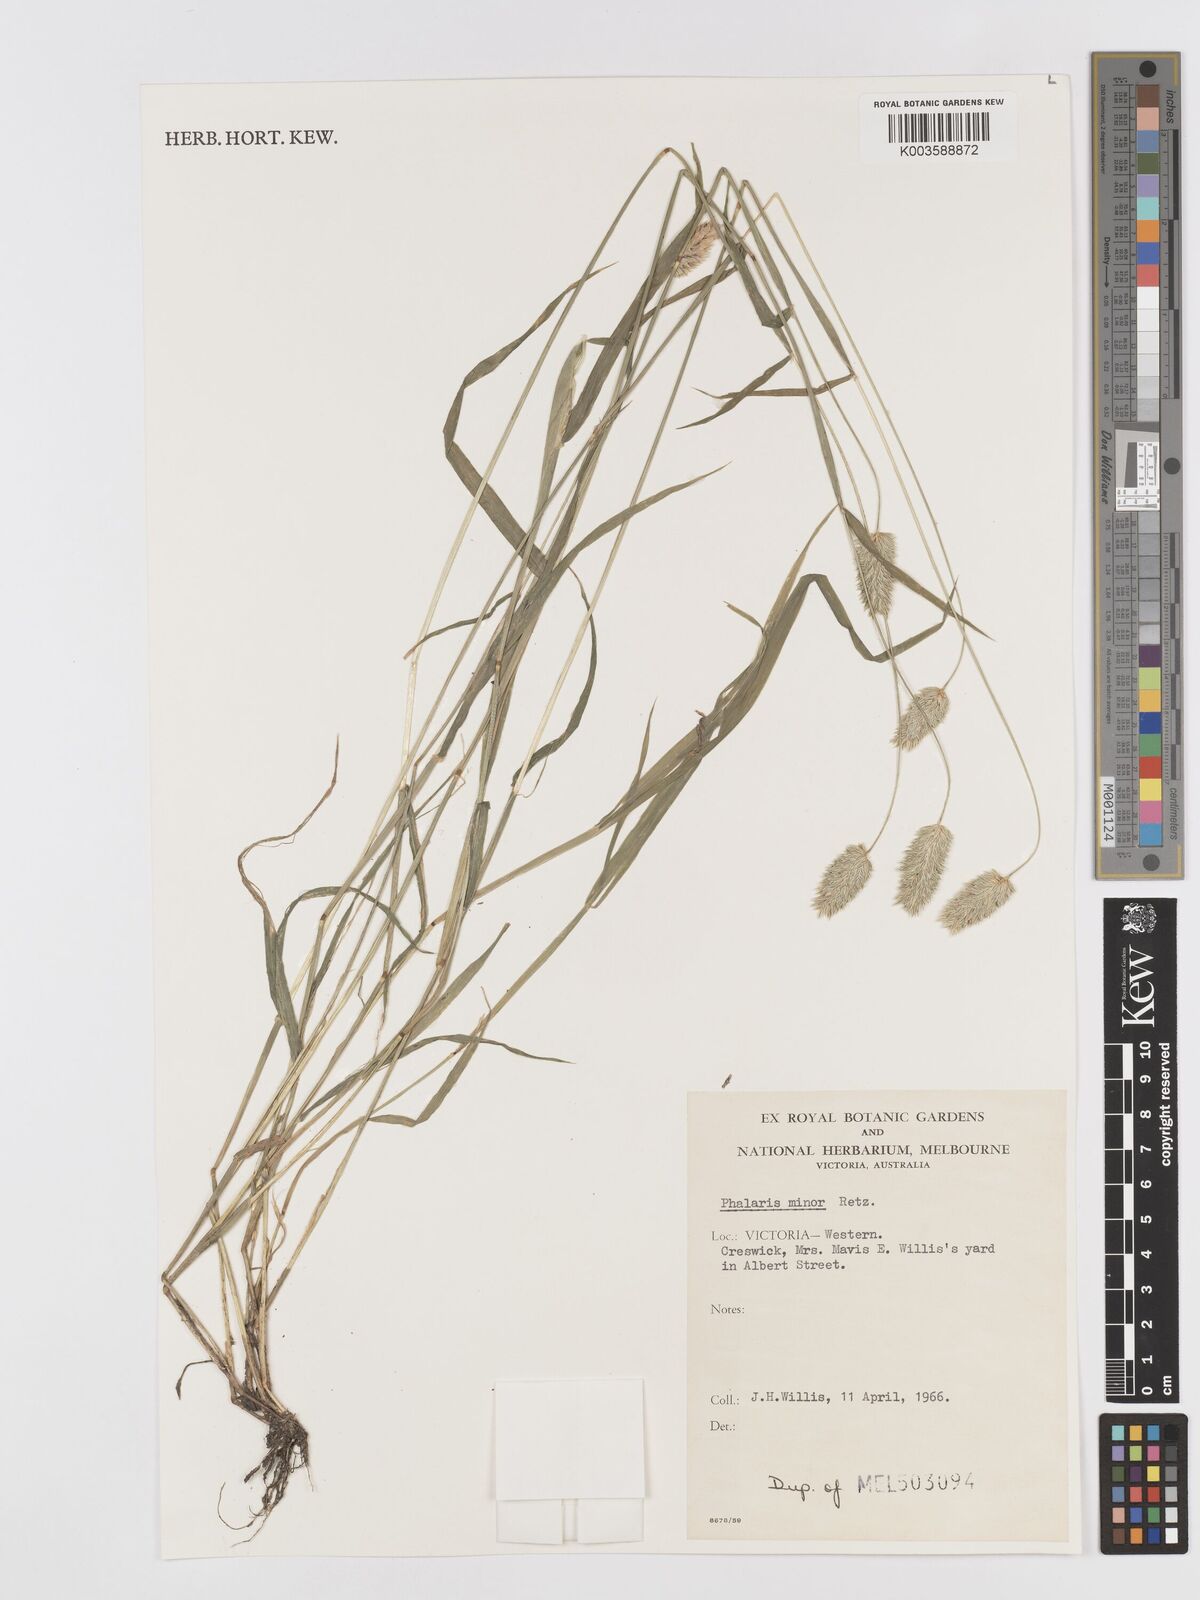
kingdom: Plantae
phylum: Tracheophyta
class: Liliopsida
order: Poales
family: Poaceae
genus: Phalaris
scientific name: Phalaris minor
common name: Littleseed canarygrass
